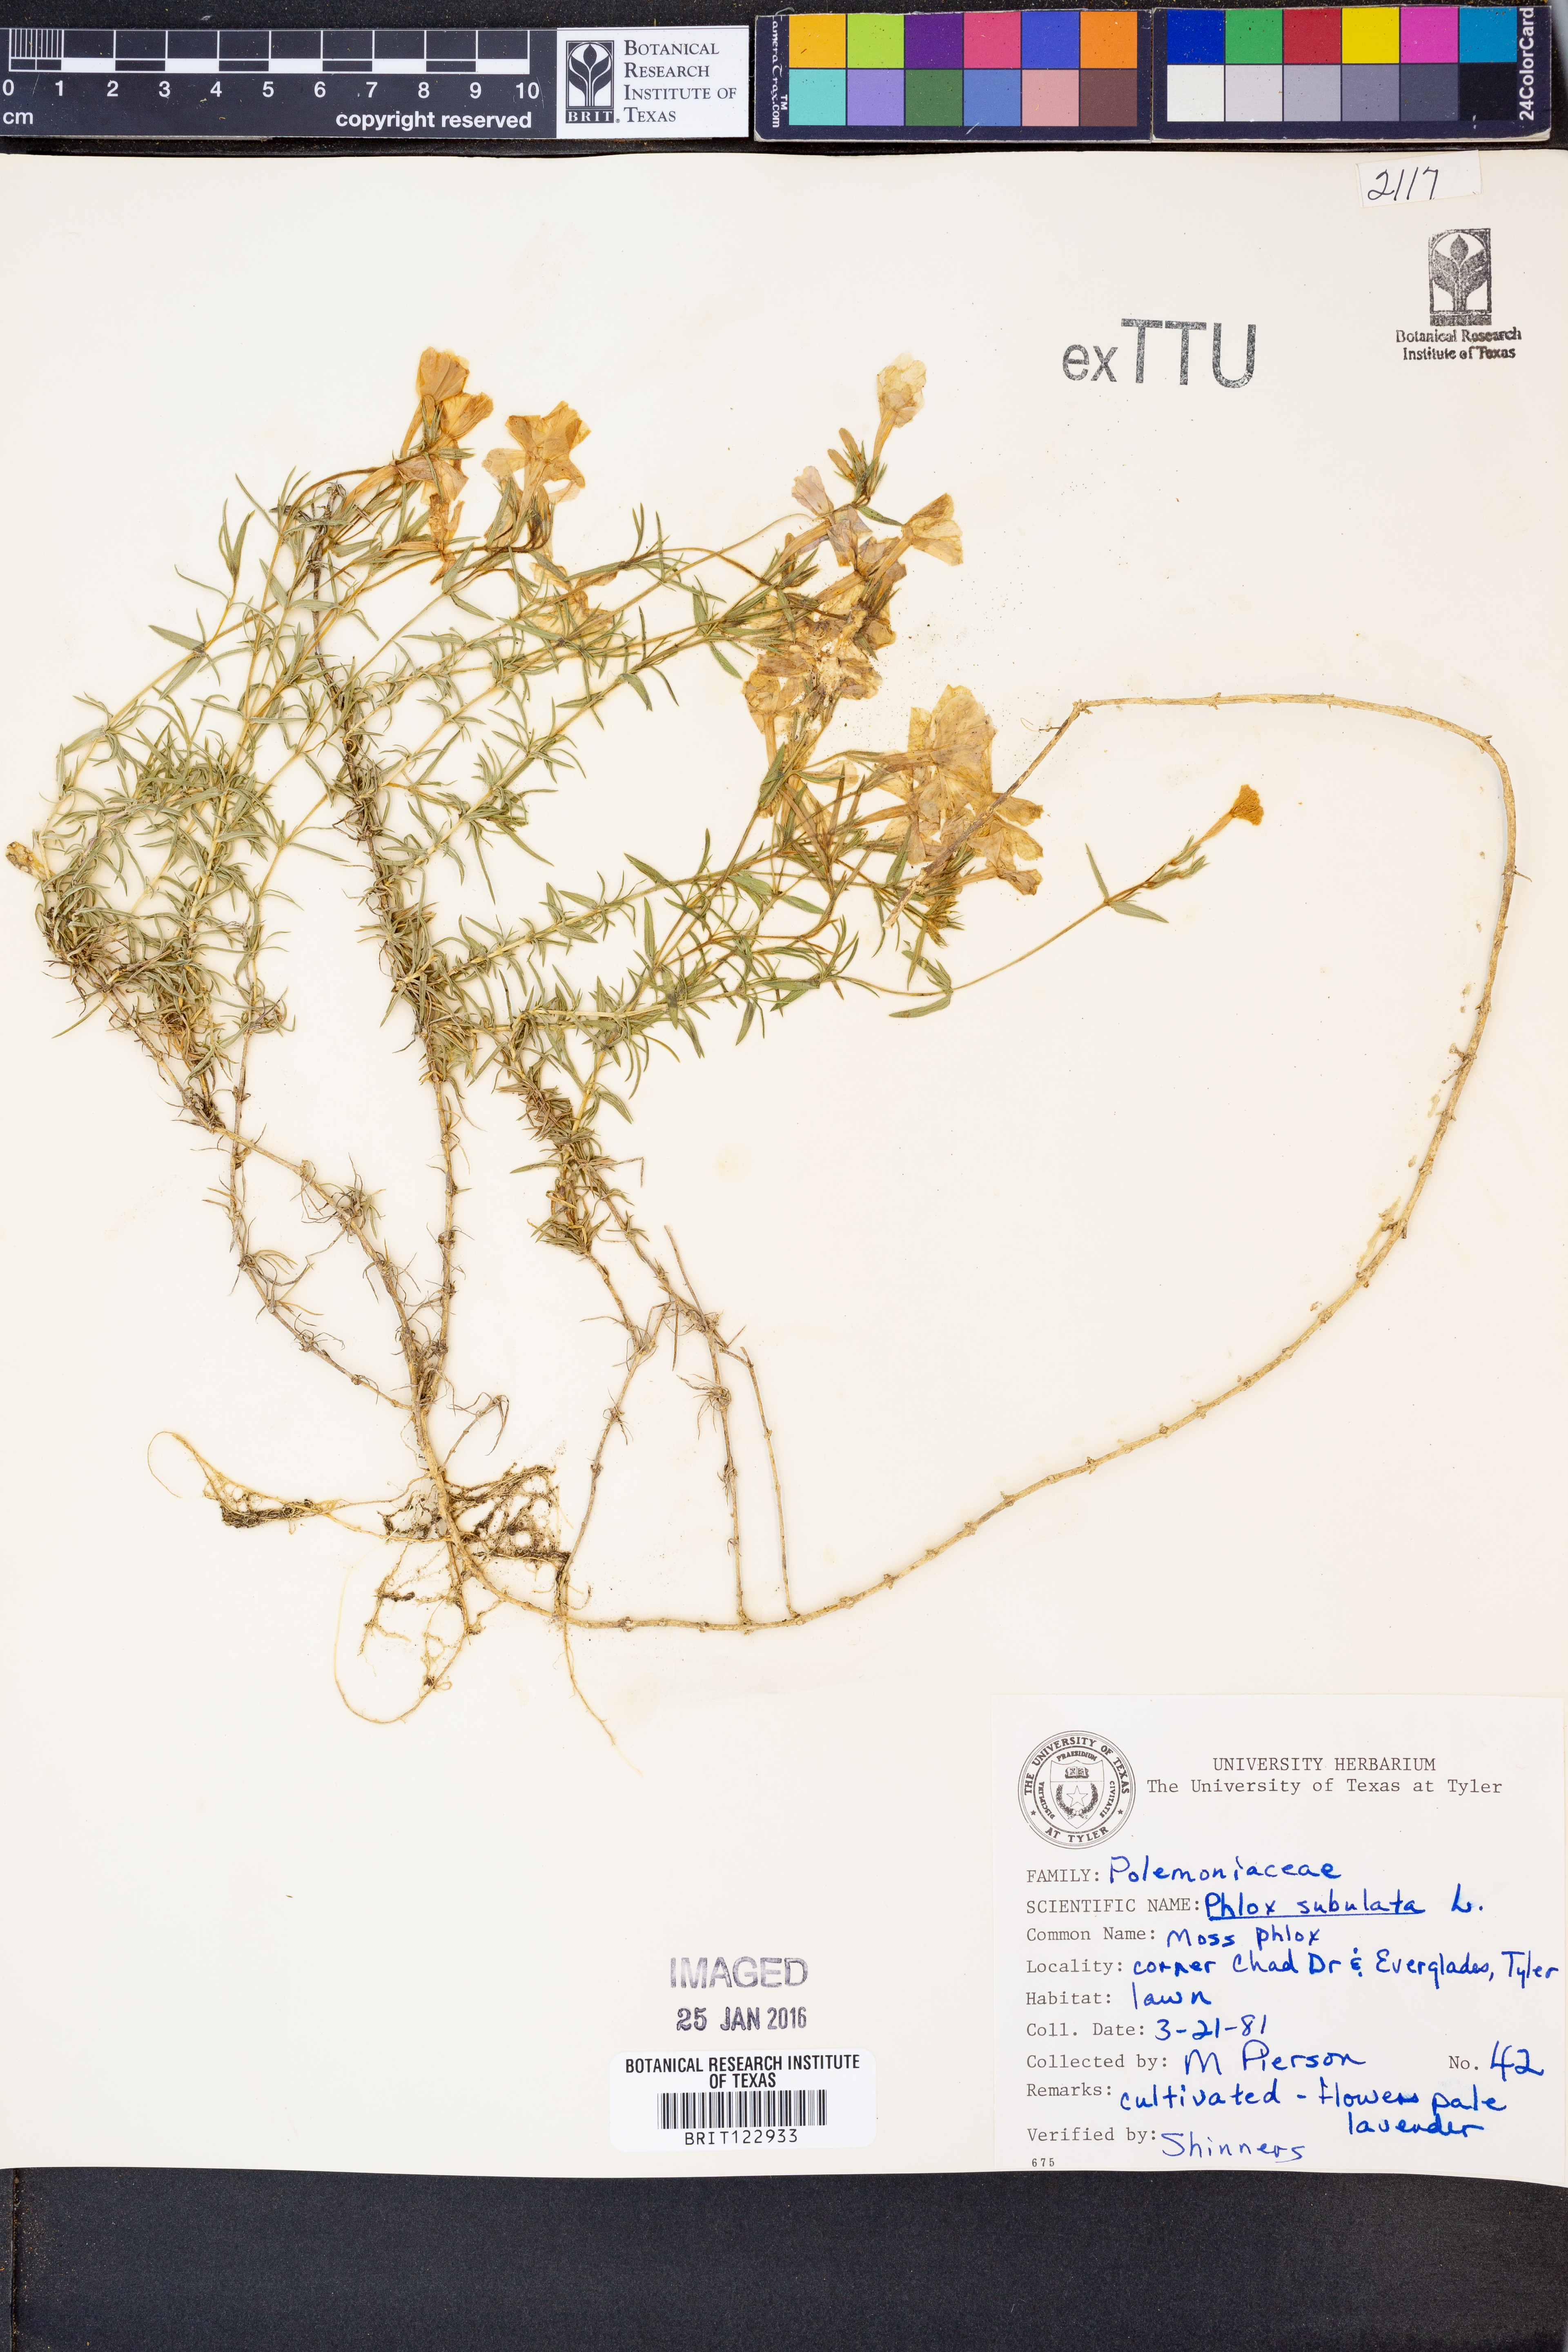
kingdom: Plantae
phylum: Tracheophyta
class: Magnoliopsida
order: Ericales
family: Polemoniaceae
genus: Phlox
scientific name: Phlox subulata
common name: Moss phlox
